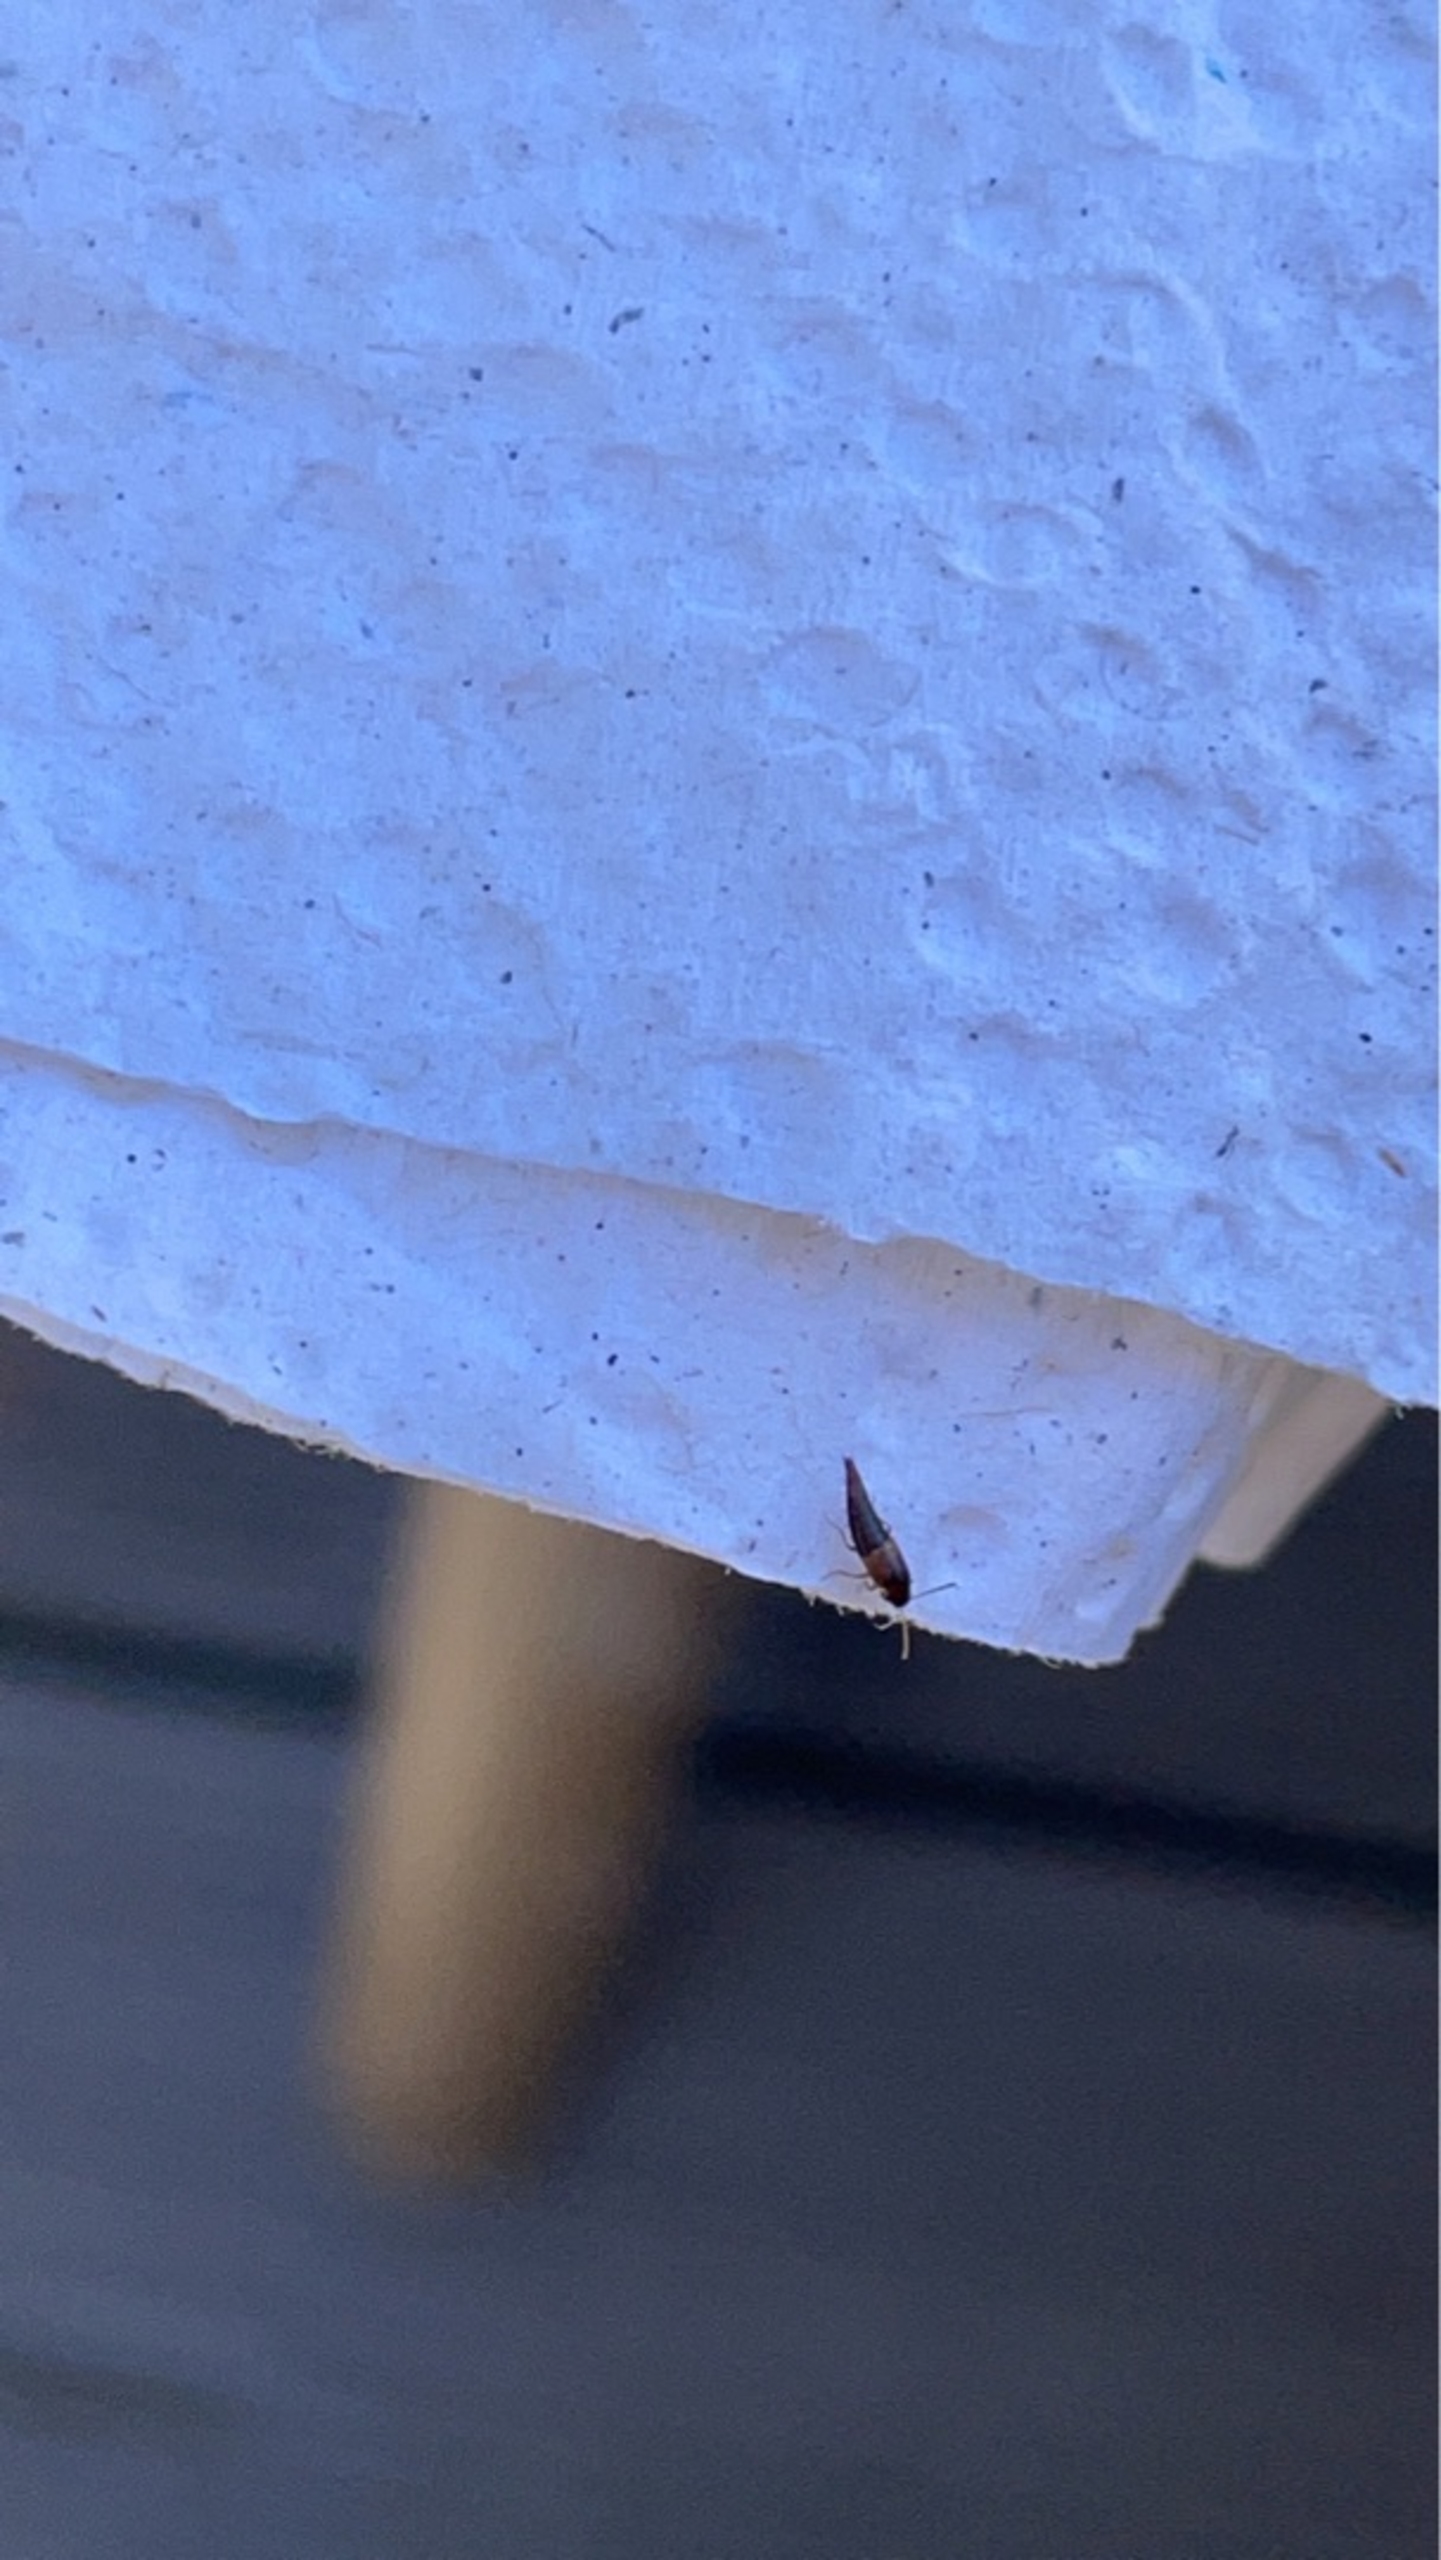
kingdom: Animalia
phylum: Arthropoda
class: Insecta
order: Coleoptera
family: Staphylinidae
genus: Tachyporus
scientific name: Tachyporus
